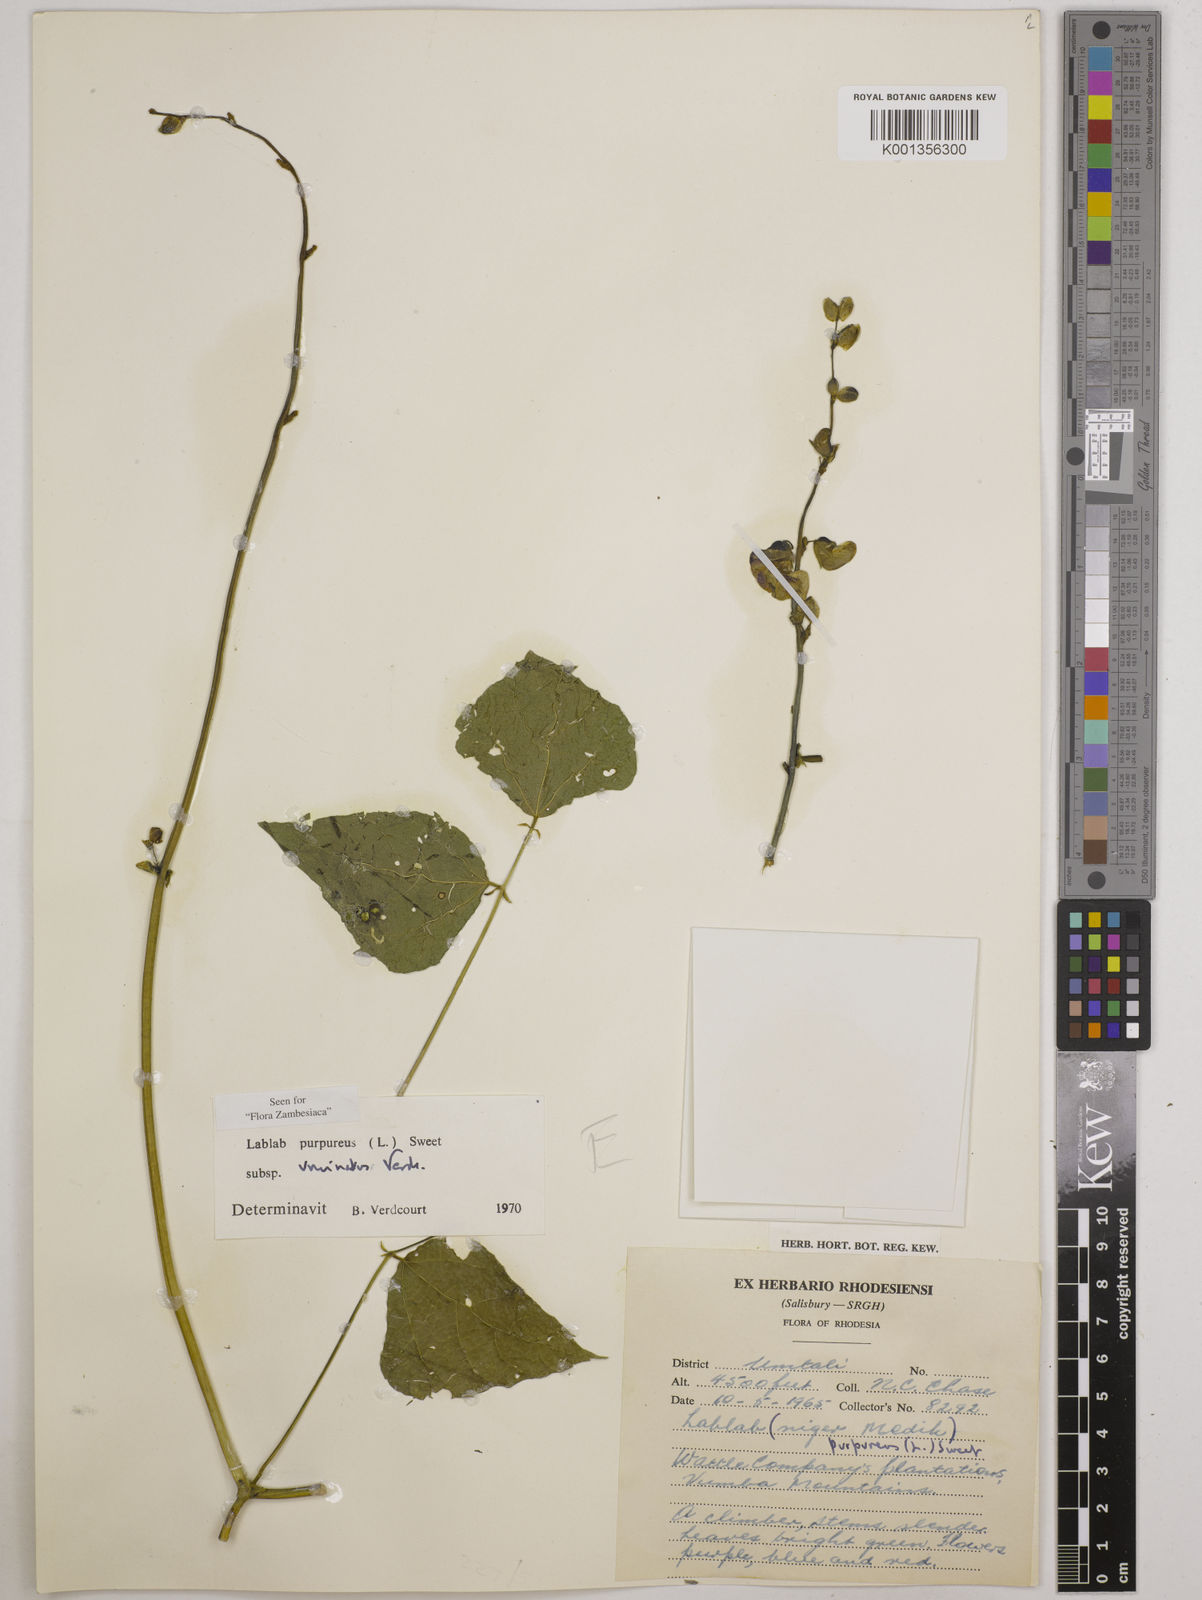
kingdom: Plantae
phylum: Tracheophyta
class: Magnoliopsida
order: Fabales
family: Fabaceae
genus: Lablab
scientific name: Lablab purpureus
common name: Lablab-bean
